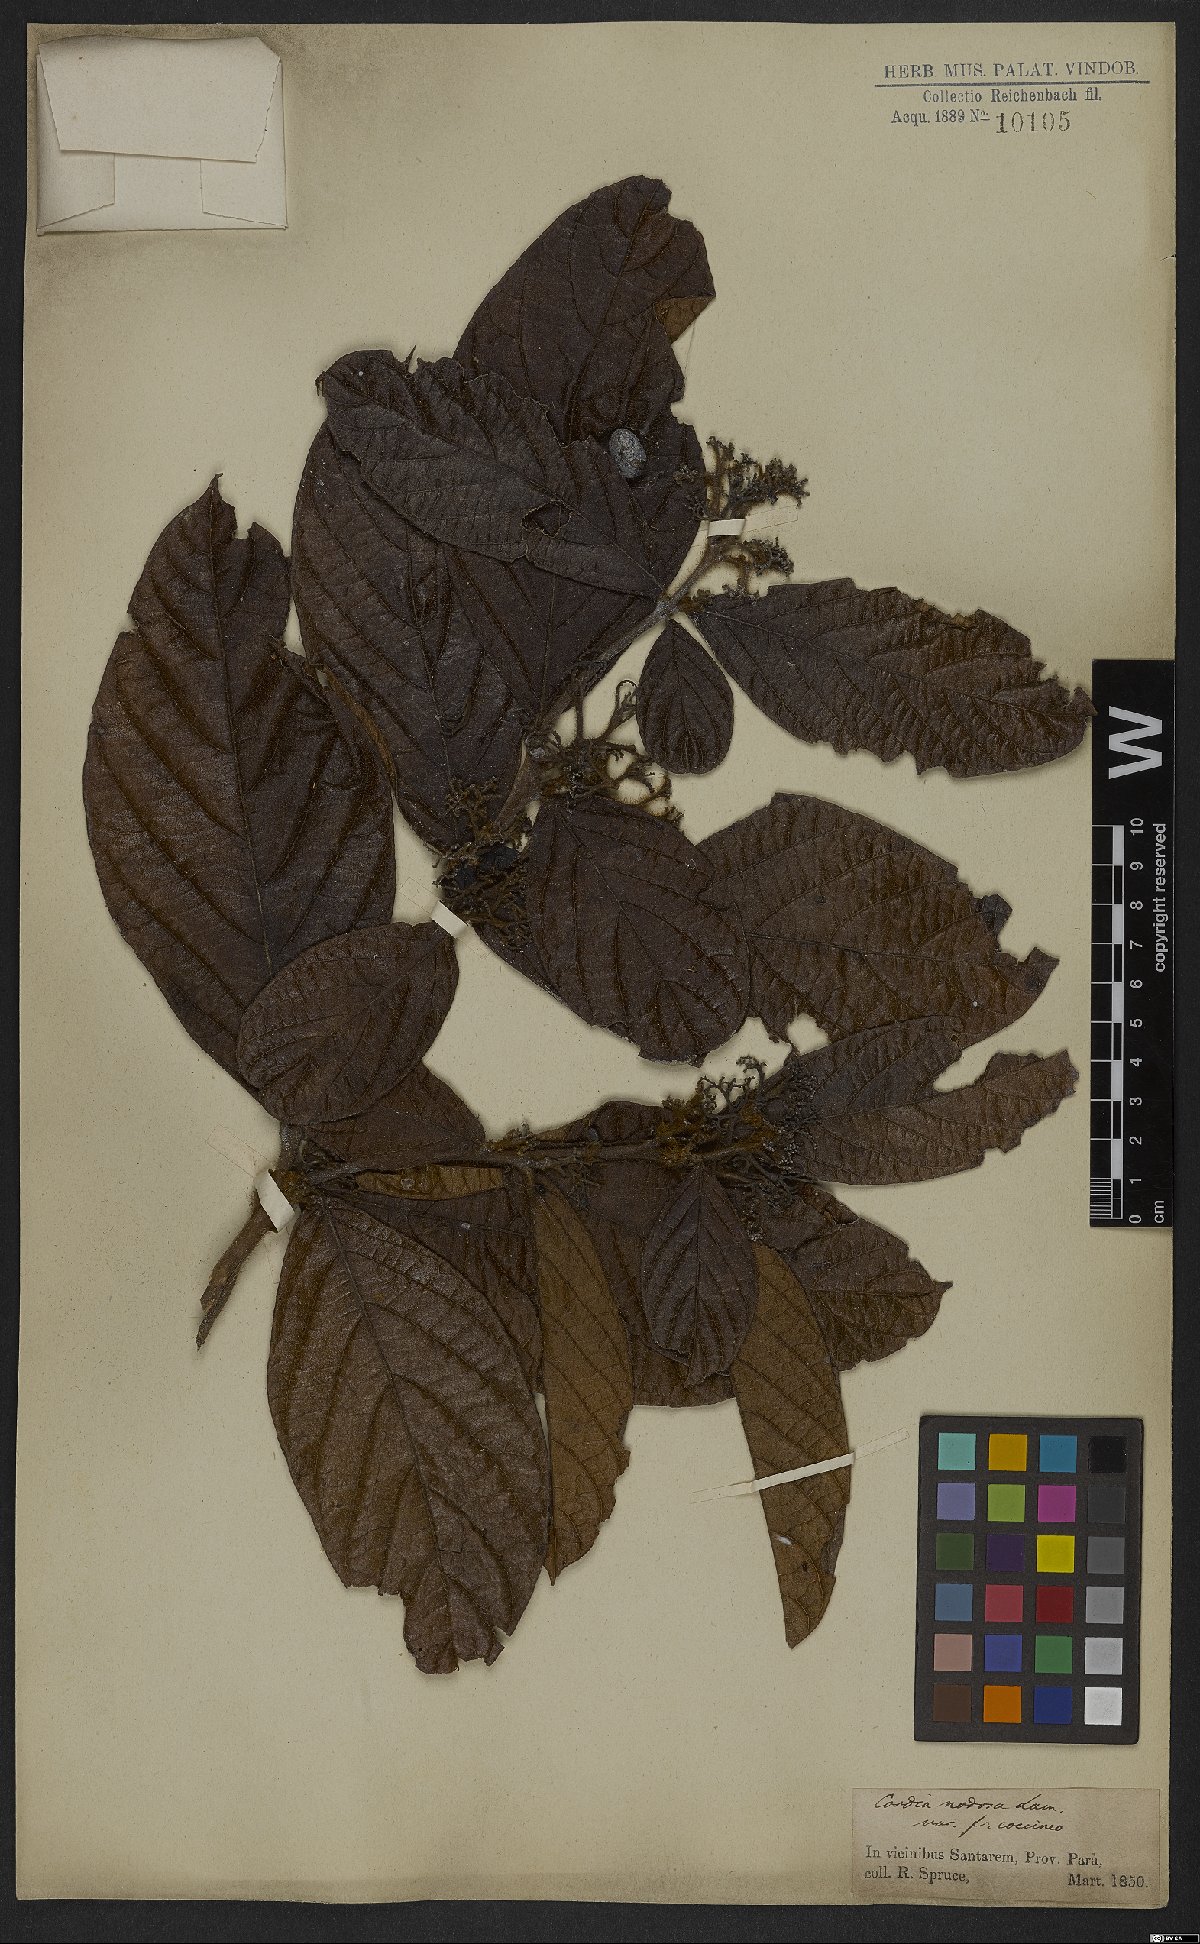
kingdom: Plantae
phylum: Tracheophyta
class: Magnoliopsida
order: Boraginales
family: Cordiaceae
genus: Cordia
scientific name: Cordia nodosa
